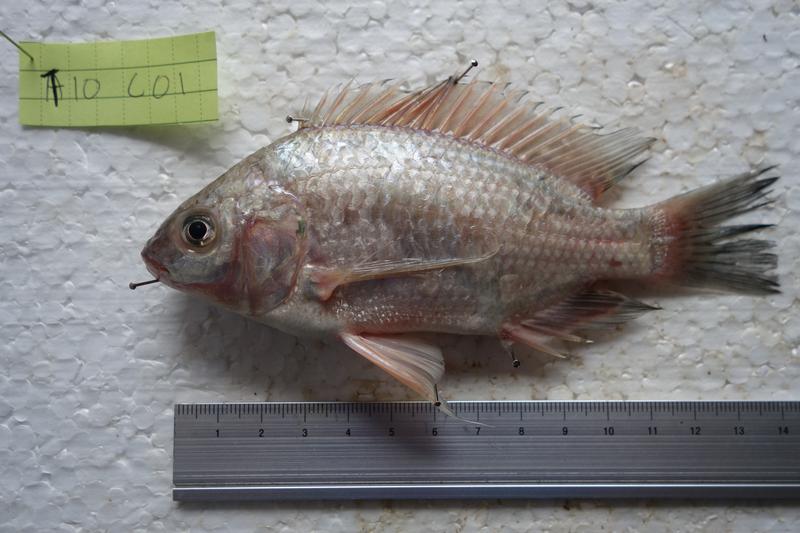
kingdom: Animalia
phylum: Chordata
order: Perciformes
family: Cichlidae
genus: Oreochromis
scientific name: Oreochromis esculentus
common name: Carp
